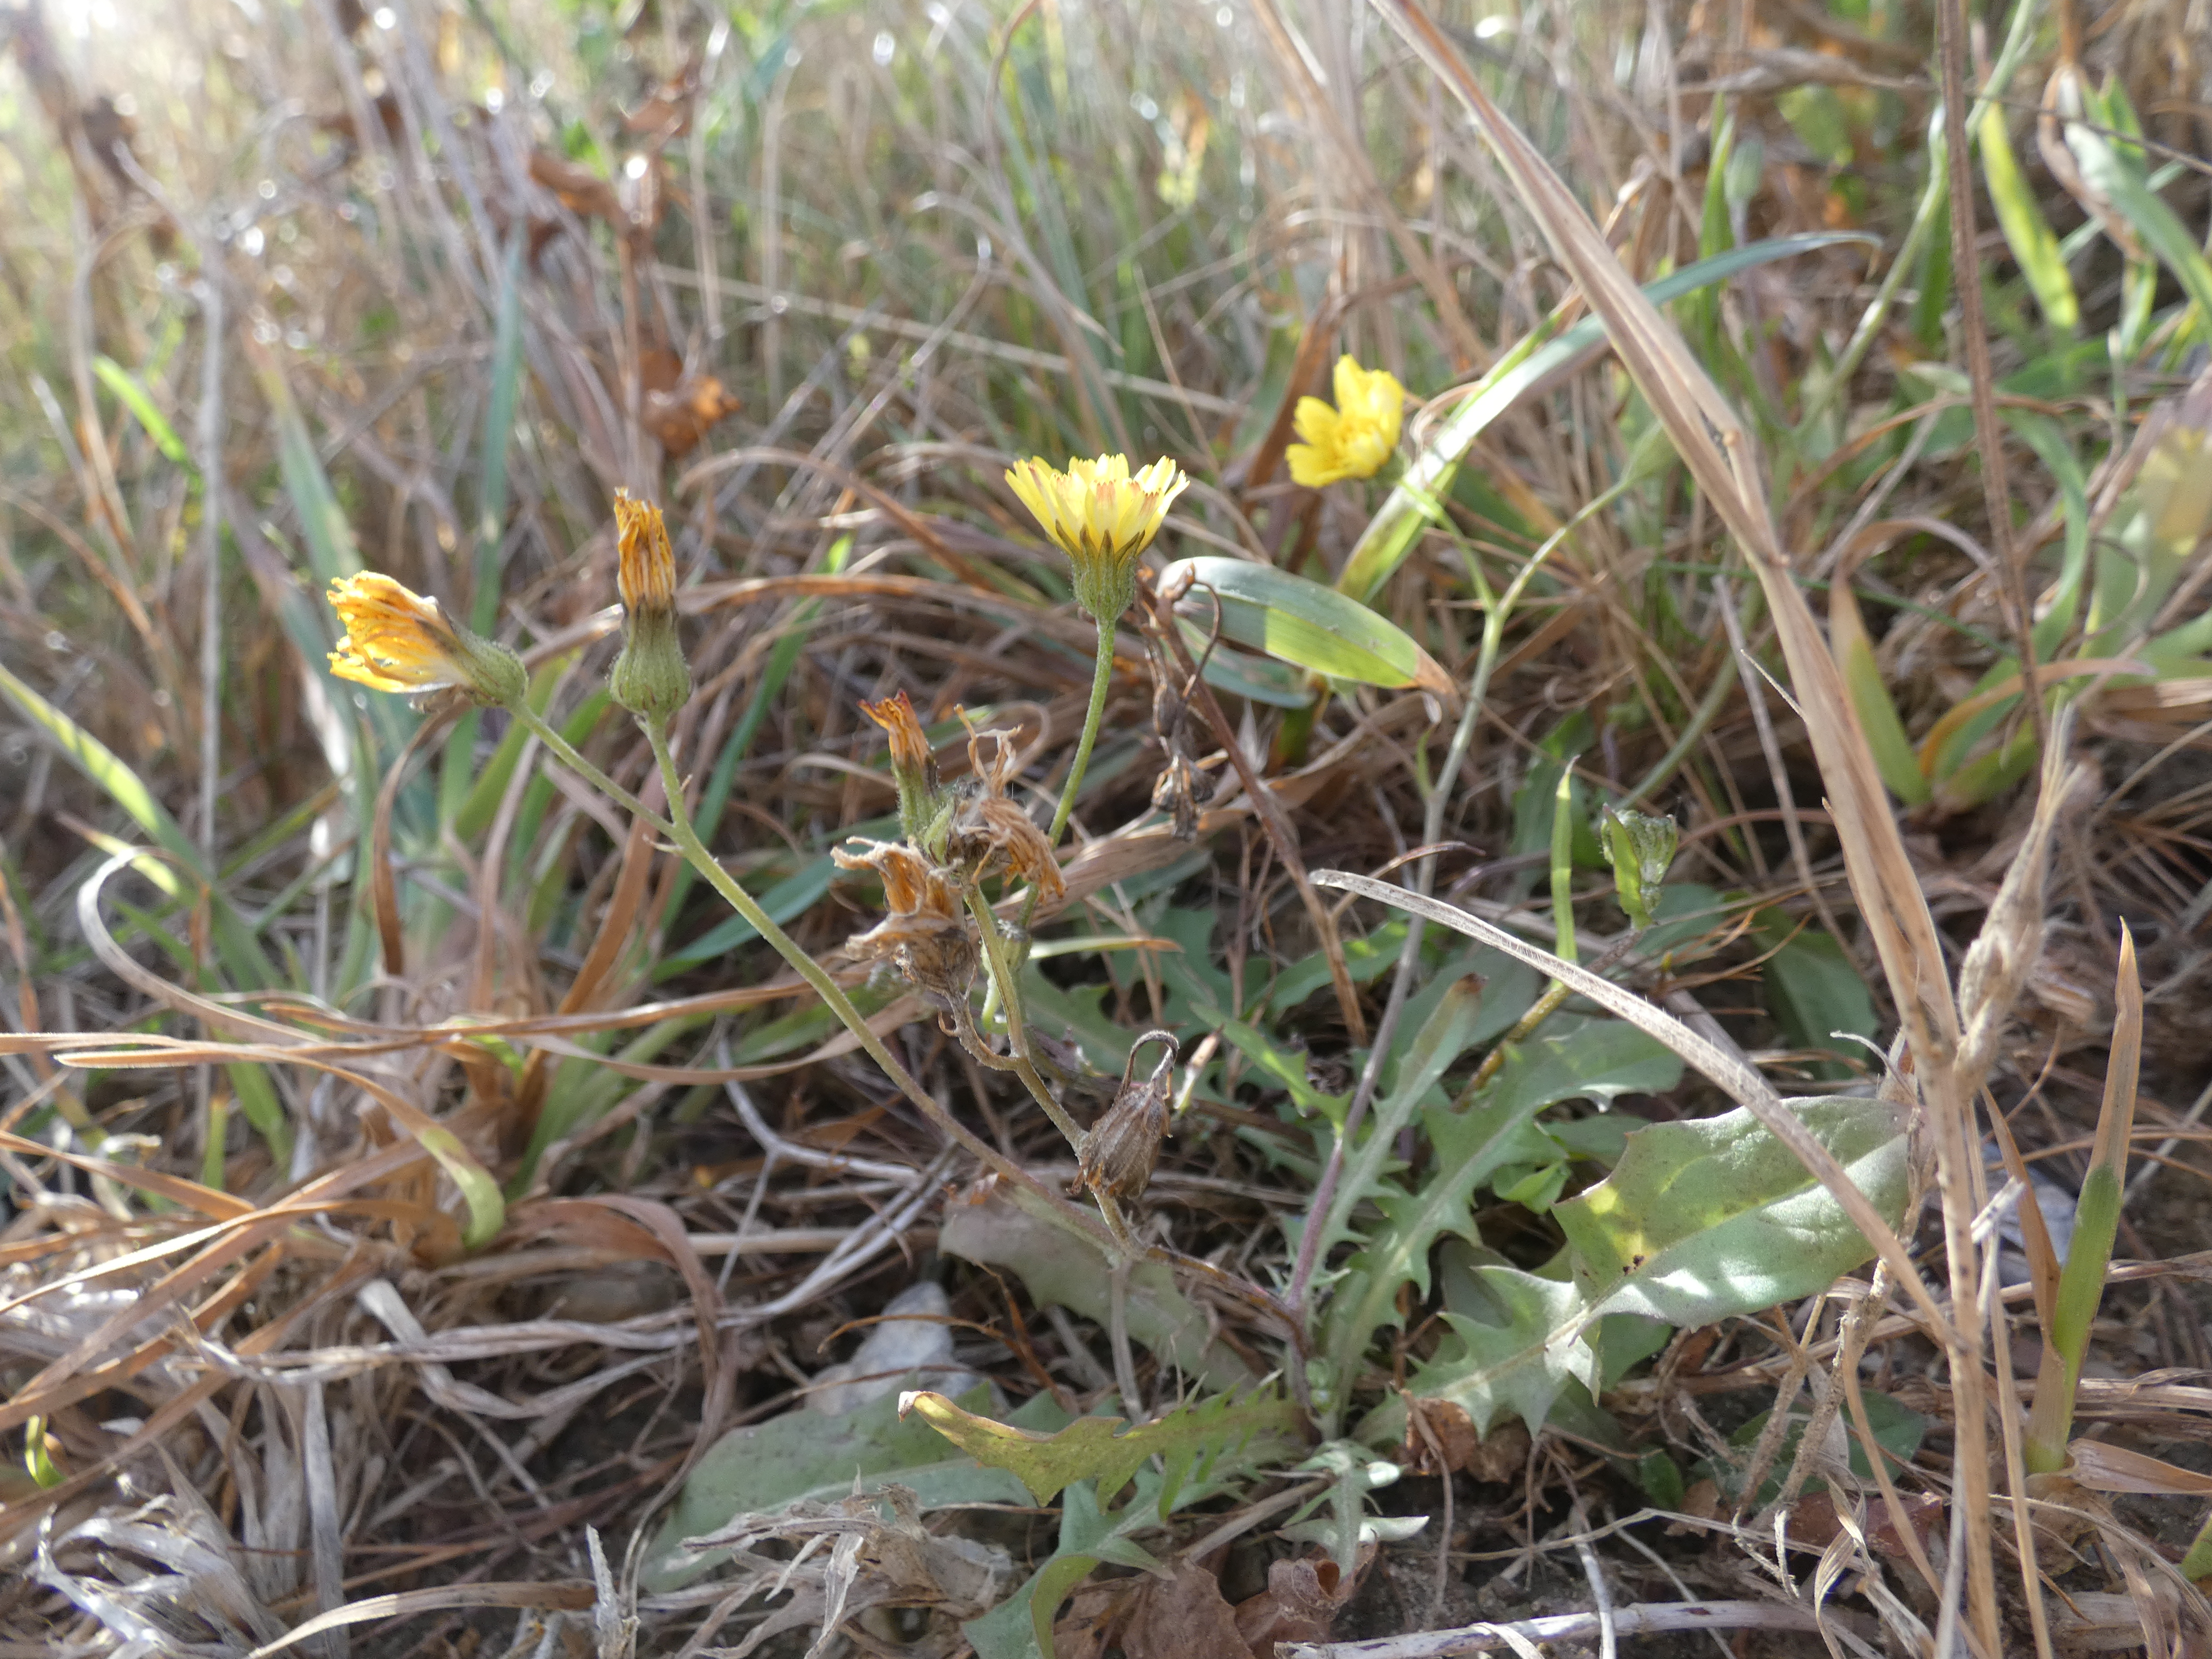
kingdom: Plantae
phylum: Tracheophyta
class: Magnoliopsida
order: Asterales
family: Asteraceae
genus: Crepis
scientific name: Crepis capillaris
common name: Grøn høgeskæg
